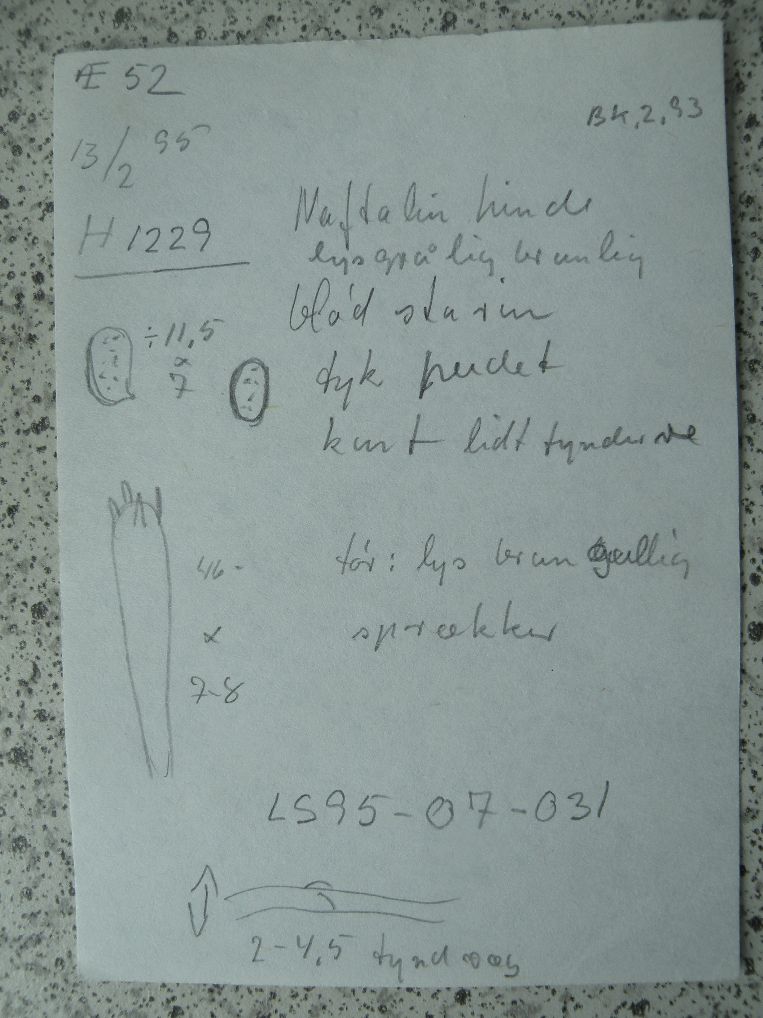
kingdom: Fungi
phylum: Basidiomycota
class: Agaricomycetes
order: Agaricales
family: Radulomycetaceae
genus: Radulomyces
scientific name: Radulomyces confluens
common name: glat naftalinskind
